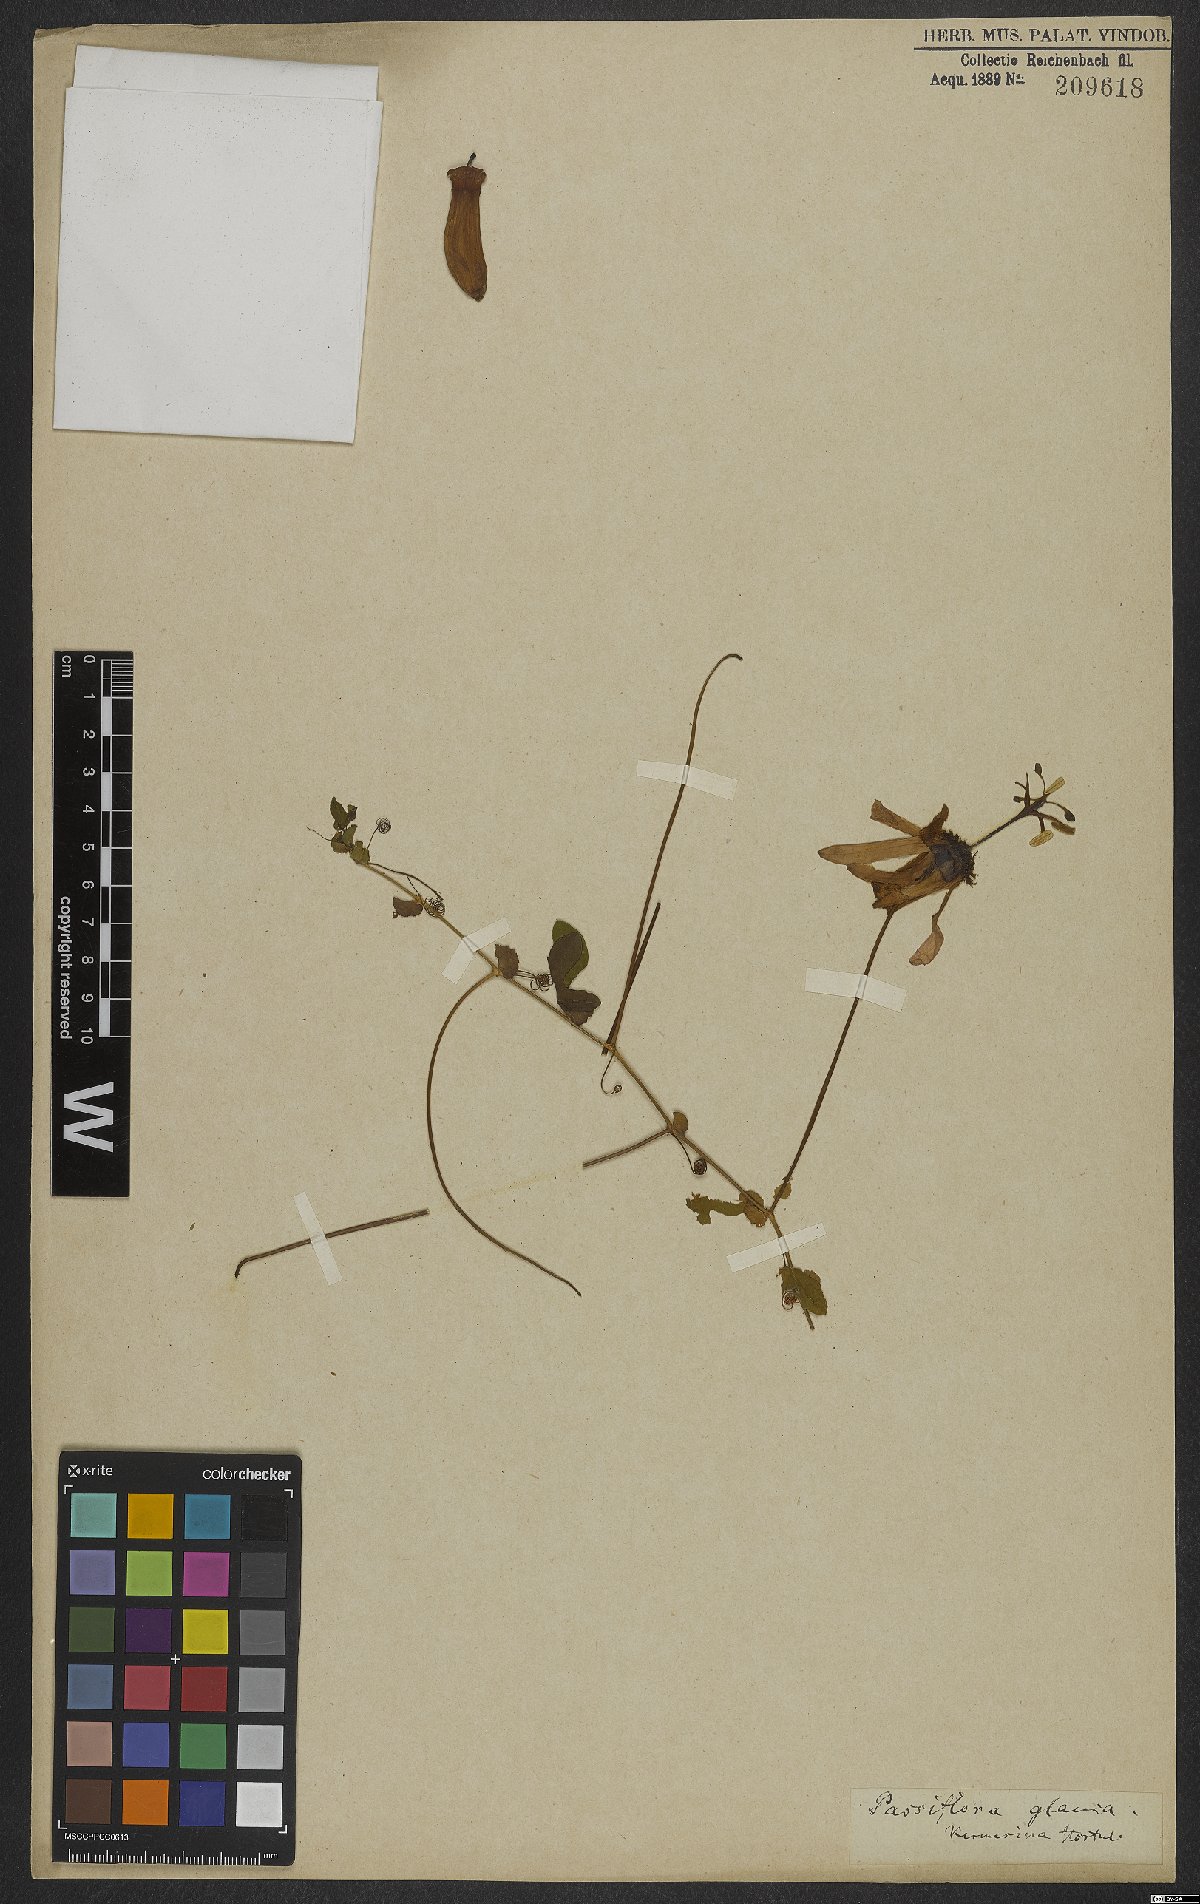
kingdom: Plantae
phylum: Tracheophyta
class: Magnoliopsida
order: Malpighiales
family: Passifloraceae
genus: Passiflora
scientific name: Passiflora kermesina
